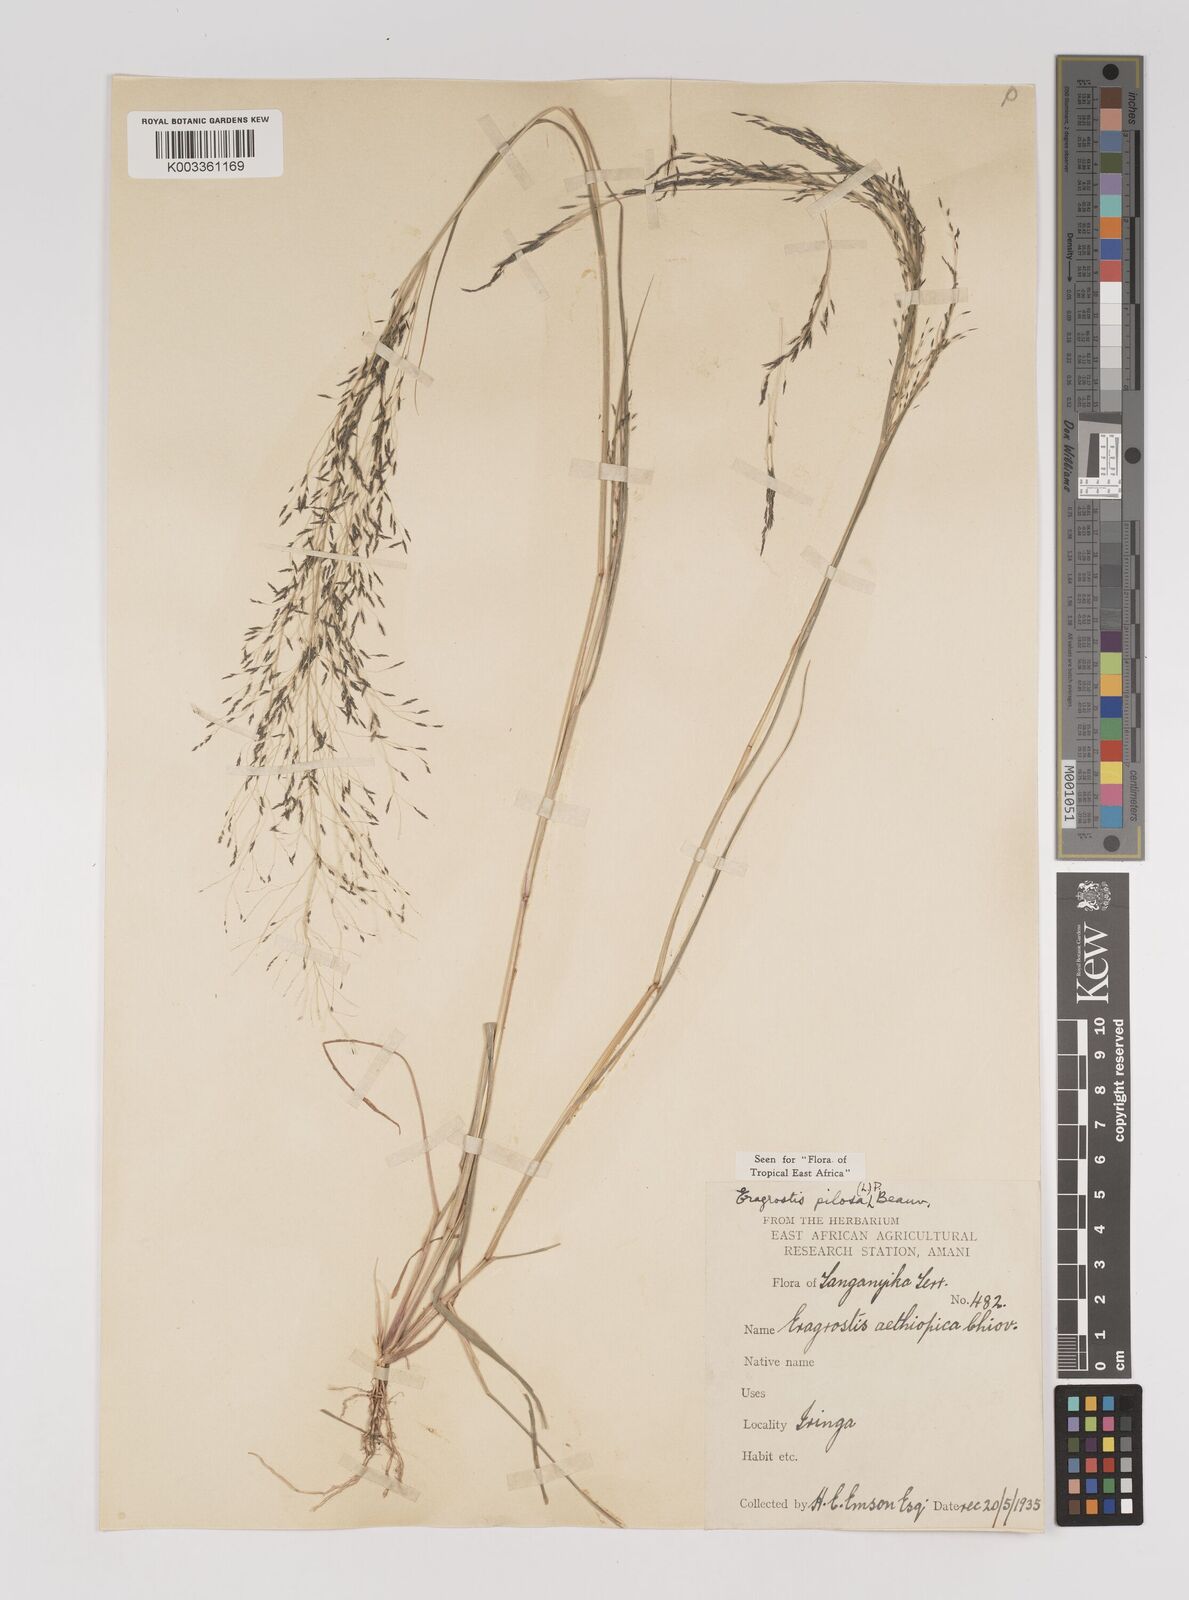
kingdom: Plantae
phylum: Tracheophyta
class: Liliopsida
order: Poales
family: Poaceae
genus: Eragrostis
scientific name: Eragrostis pilosa
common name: Indian lovegrass
